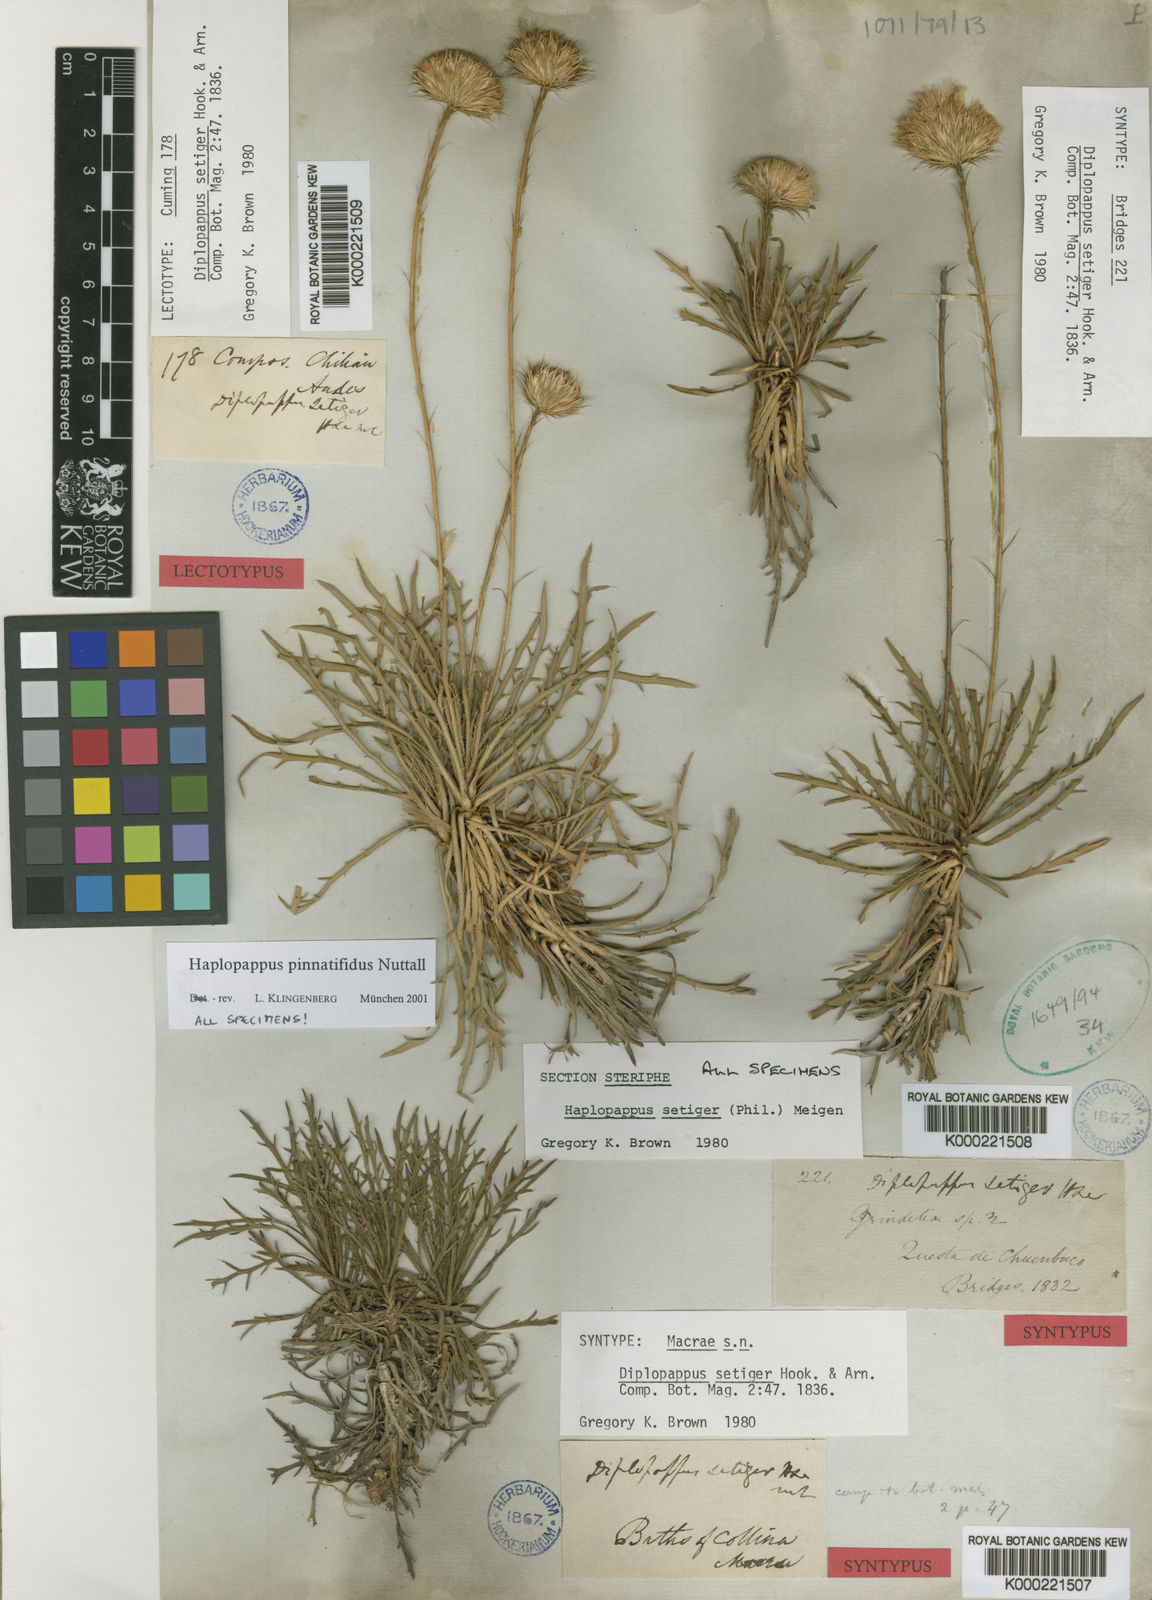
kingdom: Plantae
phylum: Tracheophyta
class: Magnoliopsida
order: Asterales
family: Asteraceae
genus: Haplopappus
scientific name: Haplopappus pinnatifidus
